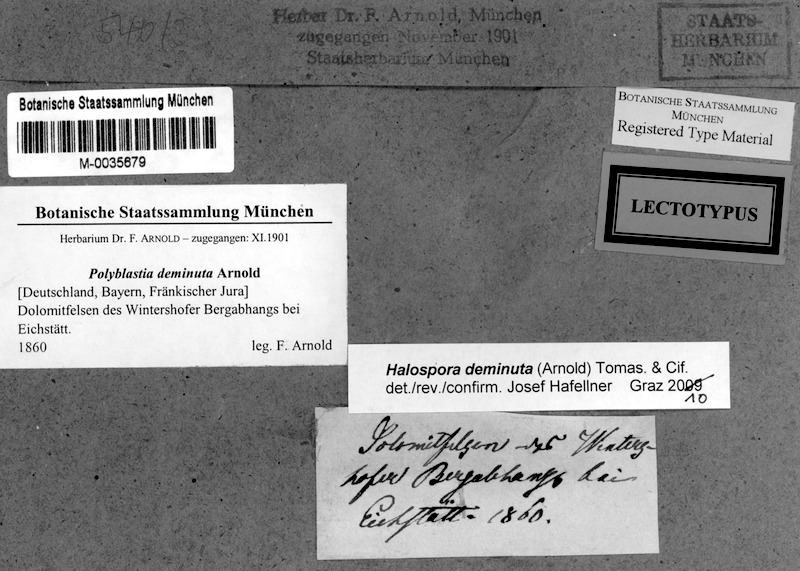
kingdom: Fungi
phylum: Ascomycota
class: Eurotiomycetes
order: Verrucariales
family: Verrucariaceae
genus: Merismatium
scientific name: Merismatium deminutum
